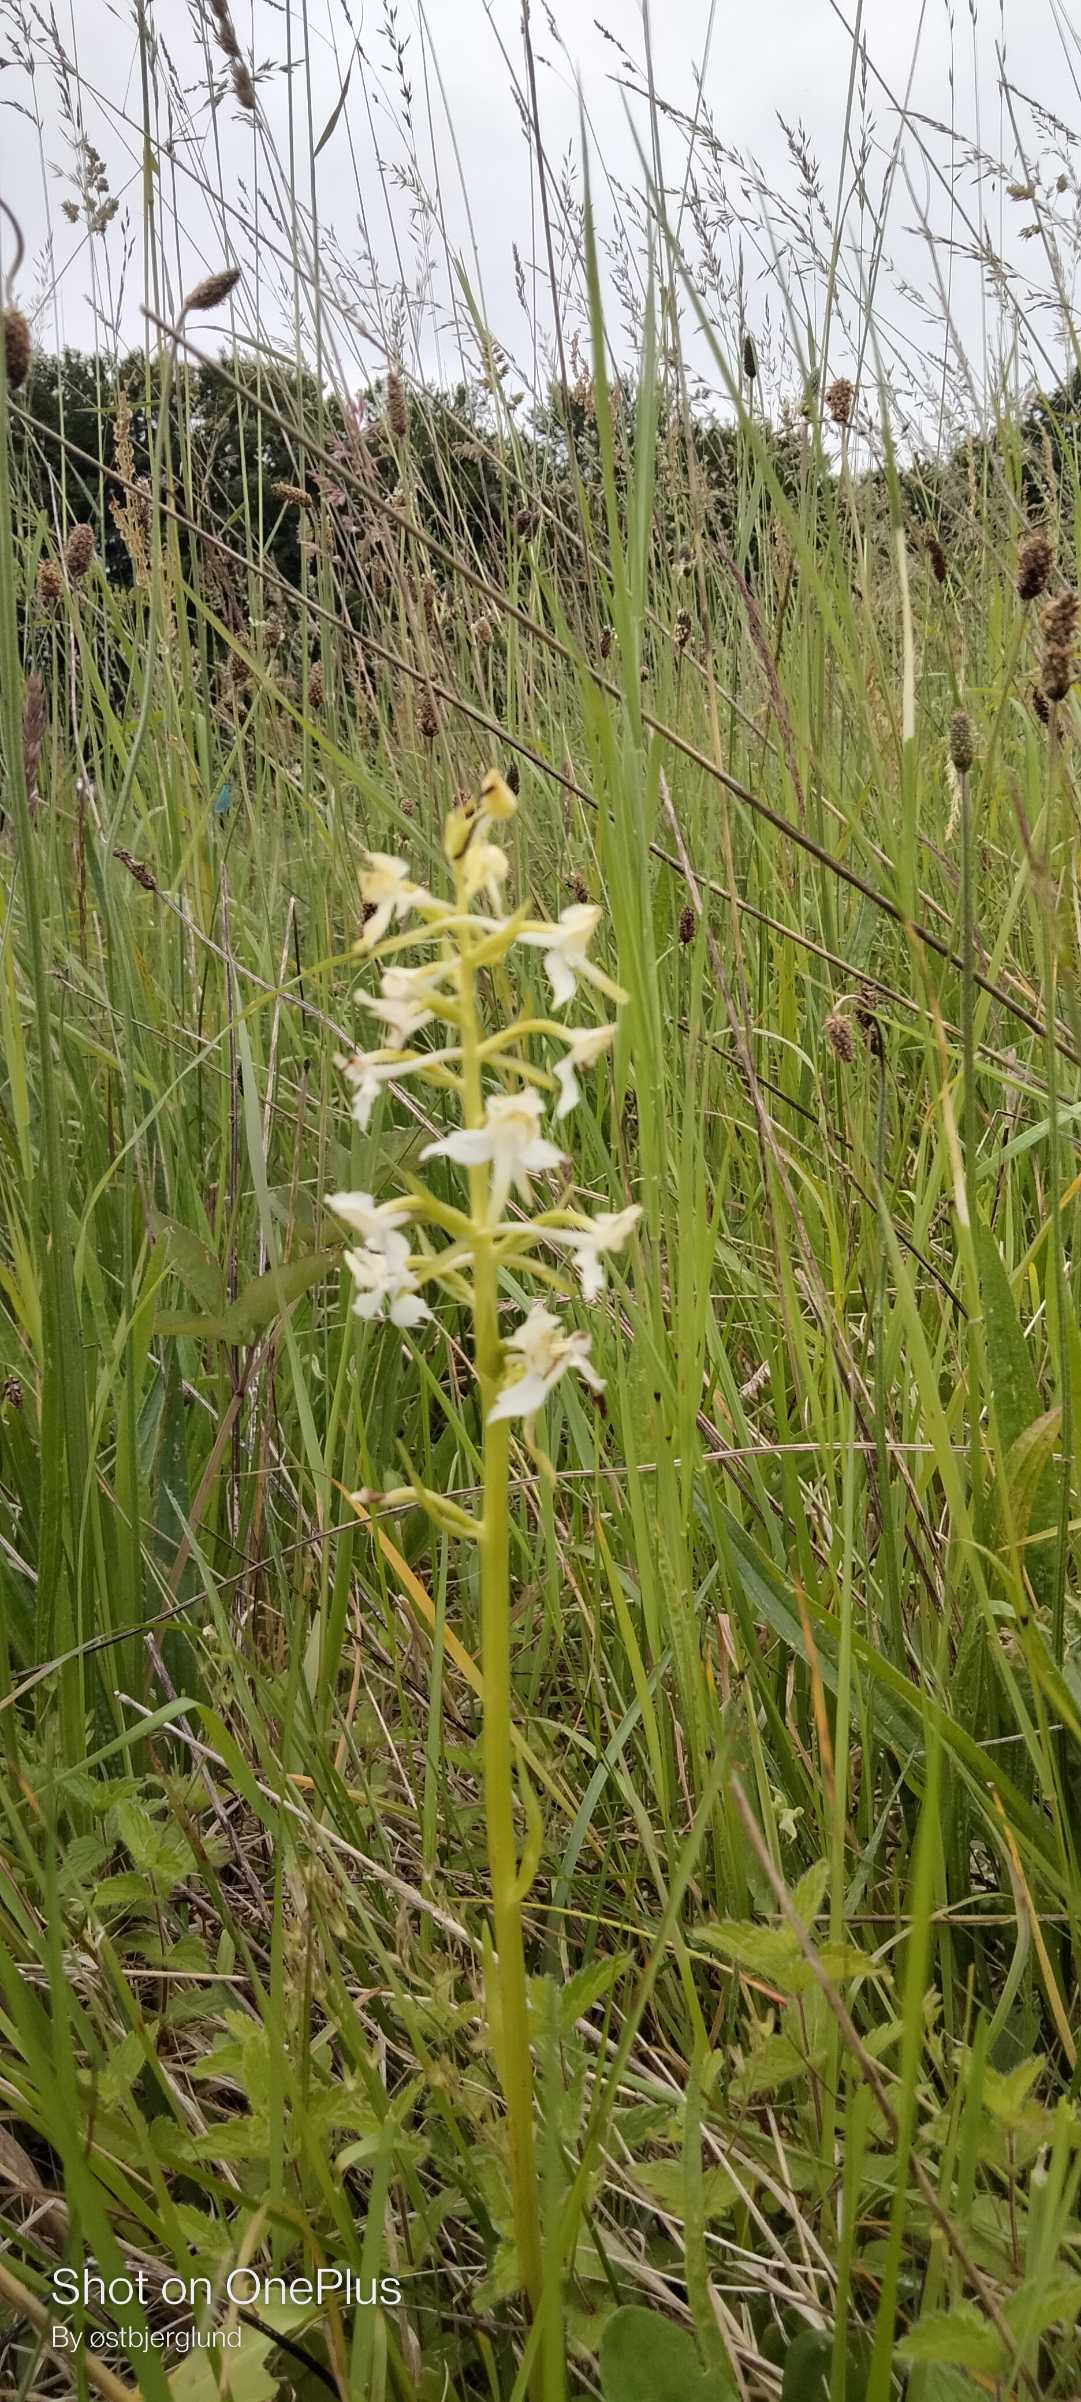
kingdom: Plantae
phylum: Tracheophyta
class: Liliopsida
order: Asparagales
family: Orchidaceae
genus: Platanthera
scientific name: Platanthera chlorantha
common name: Skov-gøgelilje
